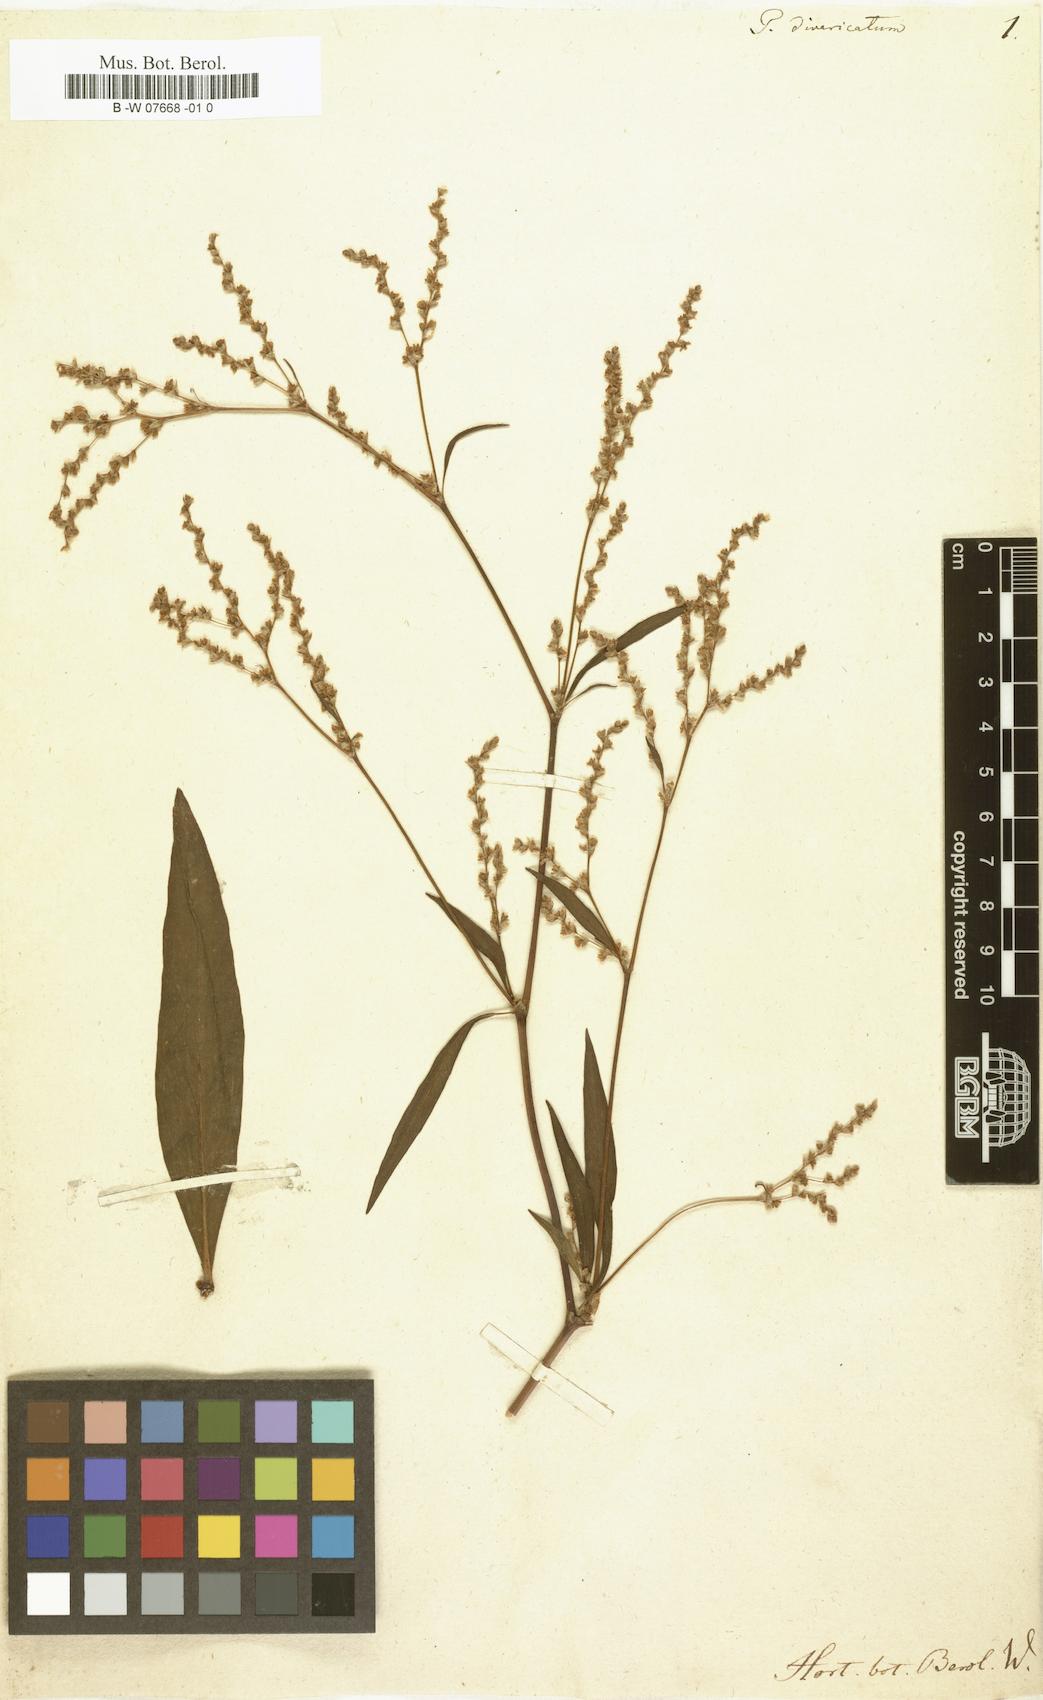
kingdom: Plantae
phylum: Tracheophyta
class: Magnoliopsida
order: Caryophyllales
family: Polygonaceae
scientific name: Polygonaceae
